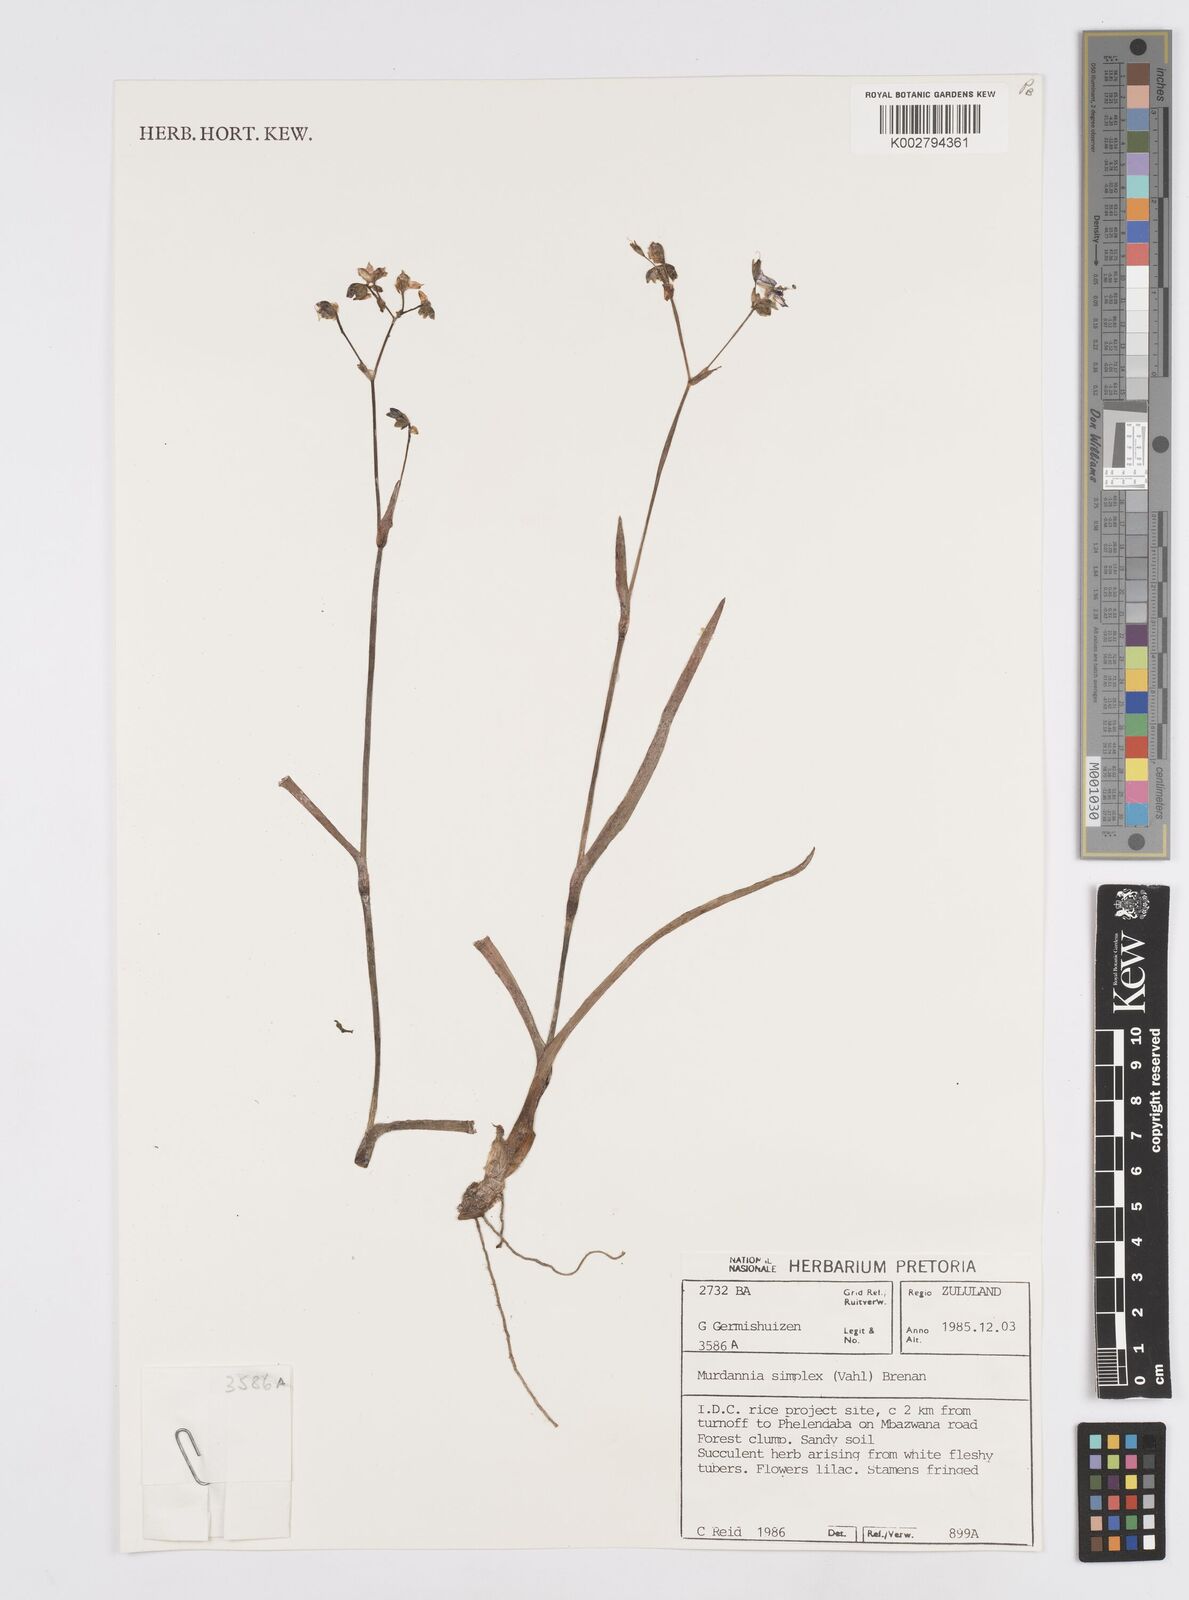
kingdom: Plantae
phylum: Tracheophyta
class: Liliopsida
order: Commelinales
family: Commelinaceae
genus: Murdannia
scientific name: Murdannia simplex
